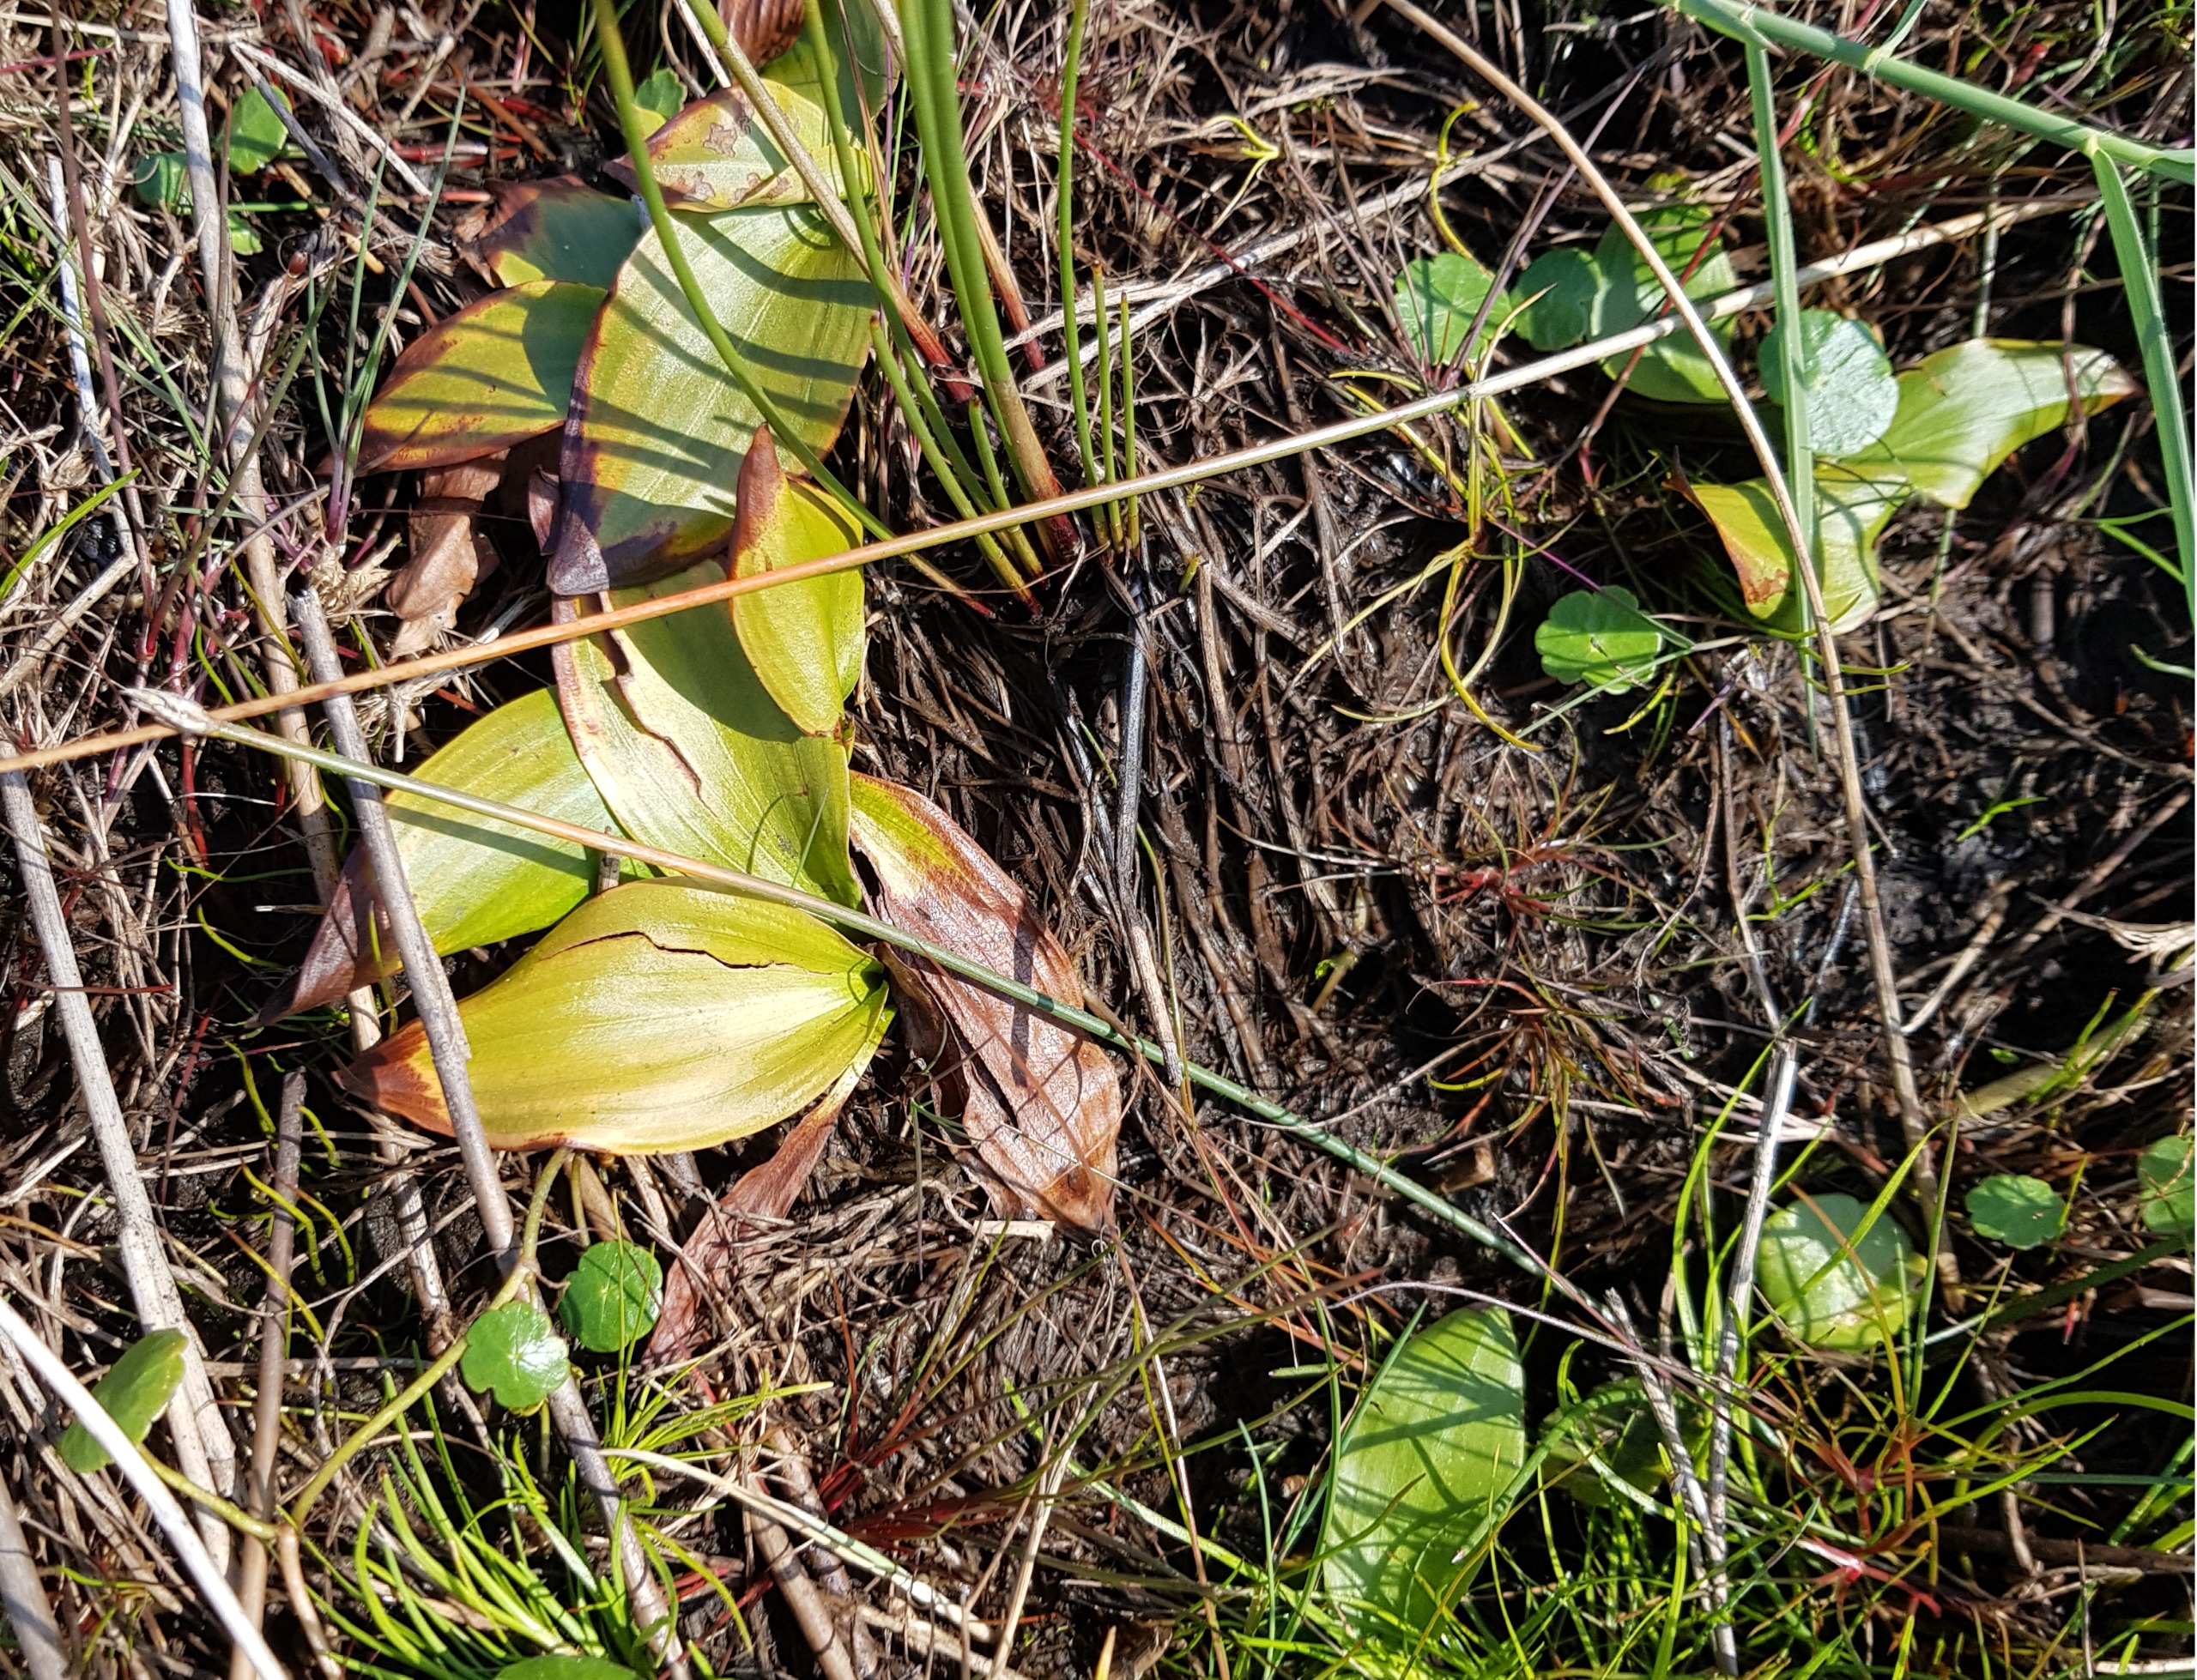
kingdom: Plantae
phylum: Tracheophyta
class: Liliopsida
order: Alismatales
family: Potamogetonaceae
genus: Potamogeton
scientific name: Potamogeton polygonifolius
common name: Aflangbladet vandaks
